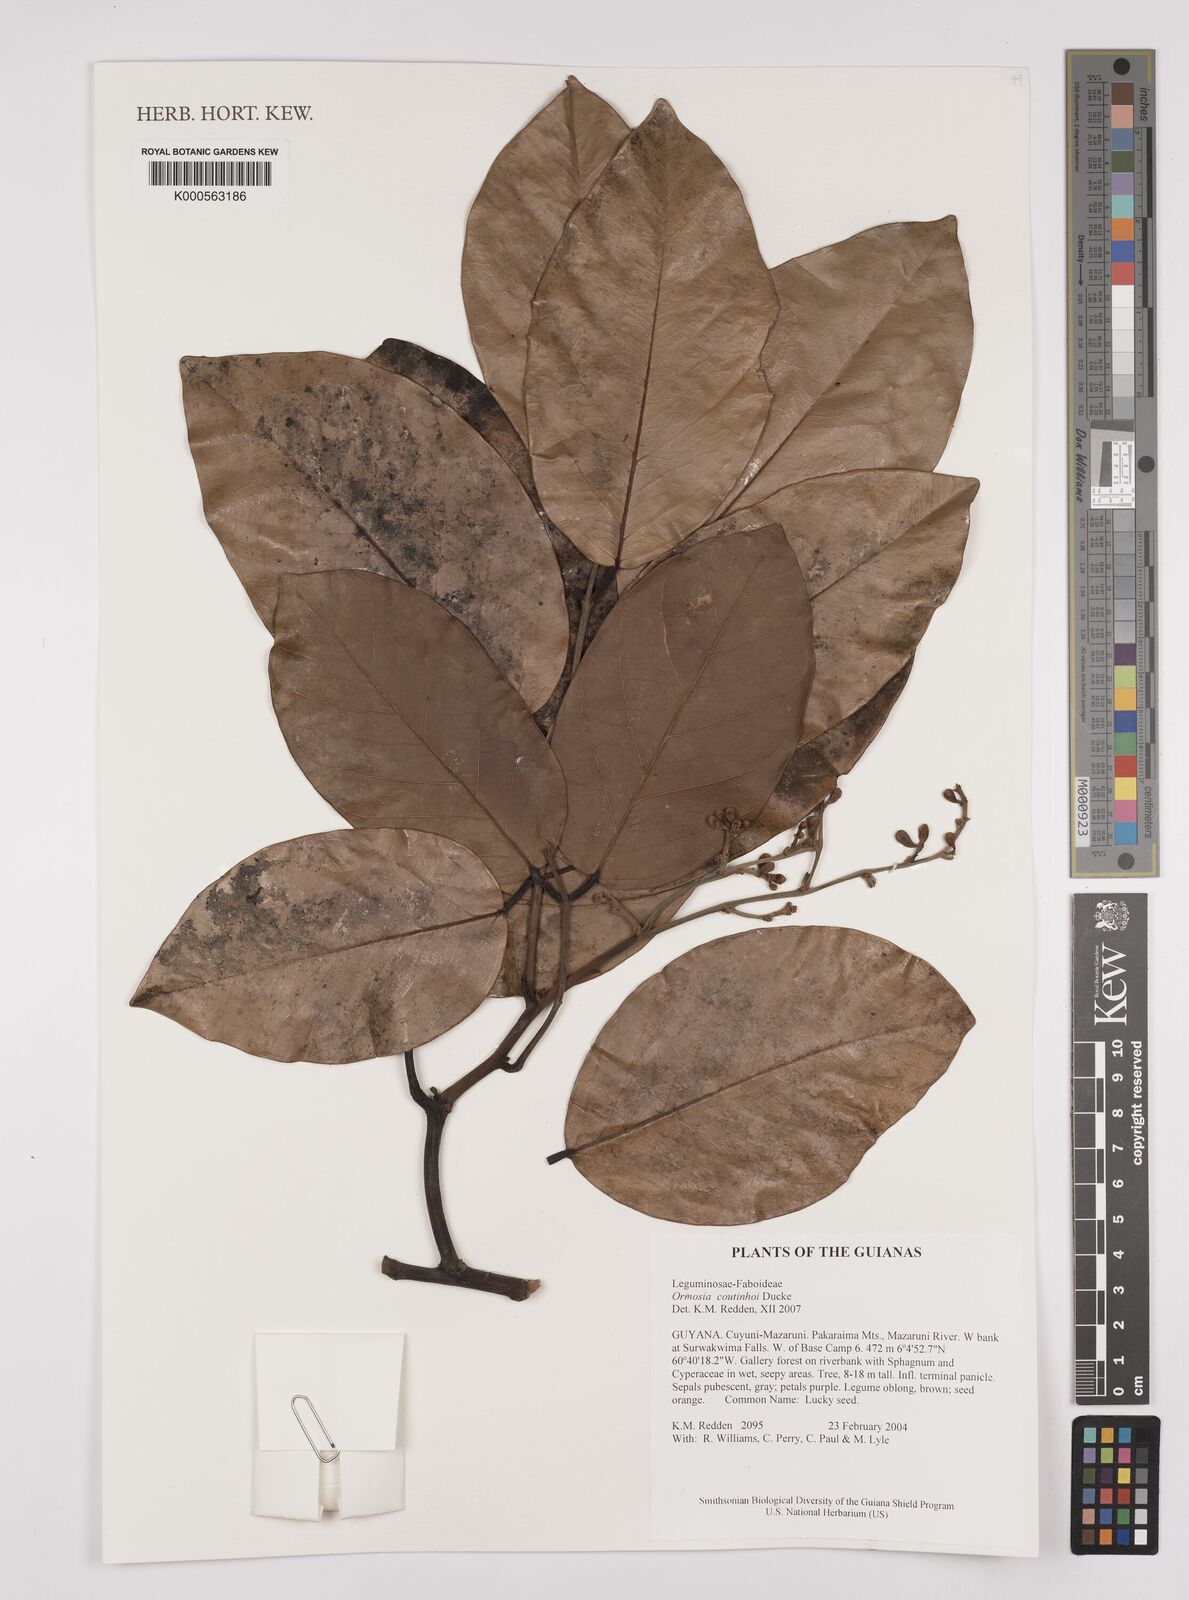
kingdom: Plantae
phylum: Tracheophyta
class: Magnoliopsida
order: Fabales
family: Fabaceae
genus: Ormosia
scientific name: Ormosia coutinhoi
